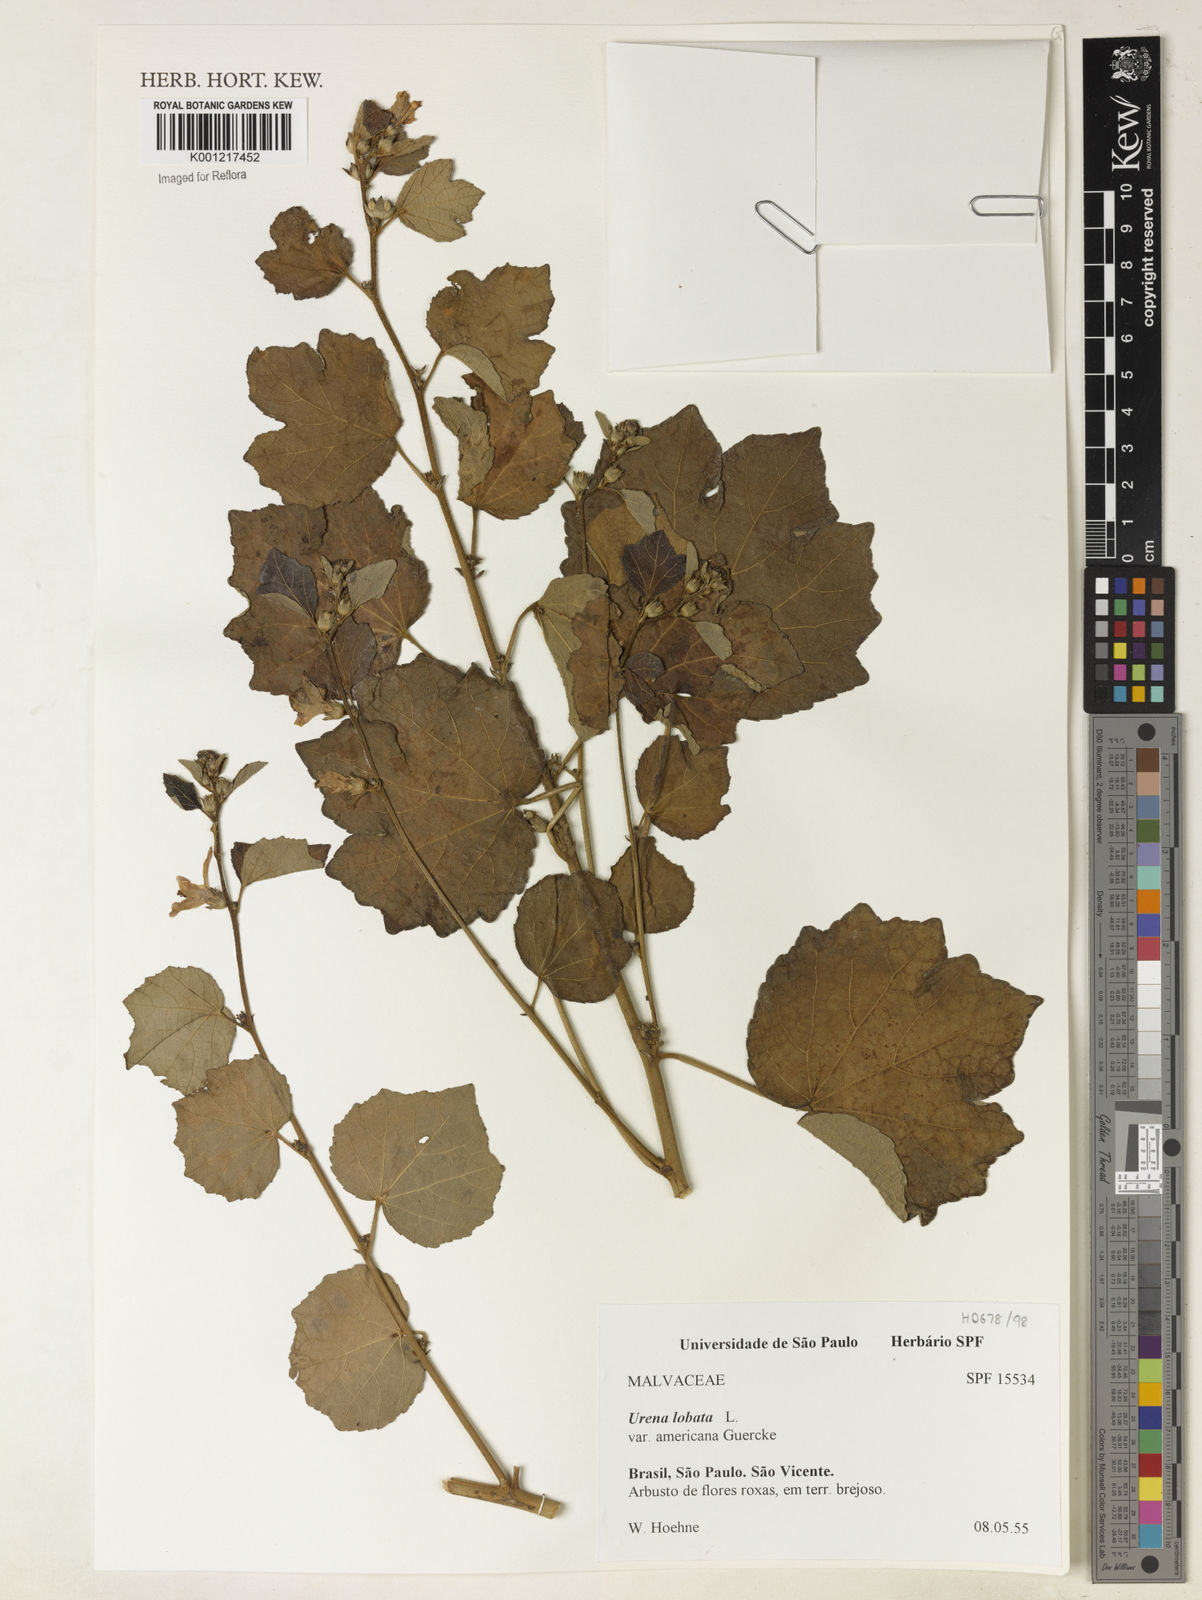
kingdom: Plantae
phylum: Tracheophyta
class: Magnoliopsida
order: Malvales
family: Malvaceae
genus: Urena
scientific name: Urena lobata
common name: Caesarweed
